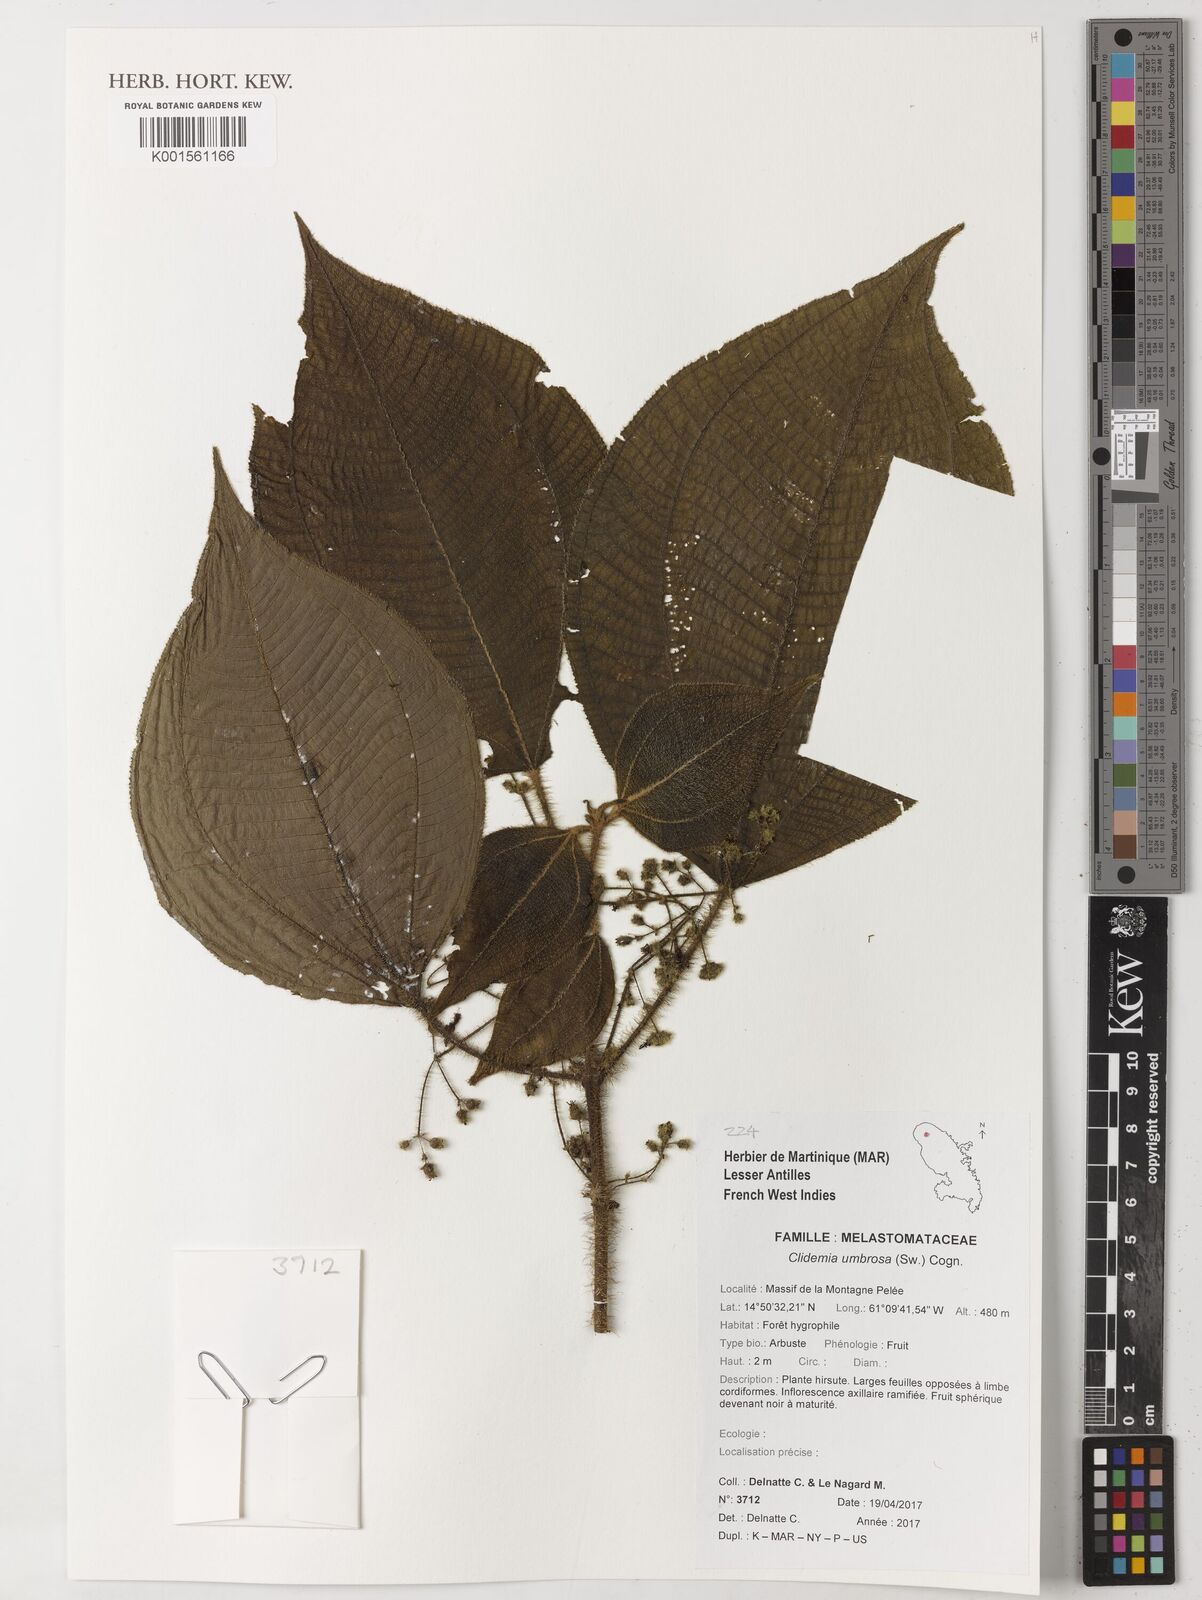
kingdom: Plantae
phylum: Tracheophyta
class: Magnoliopsida
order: Myrtales
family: Melastomataceae
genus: Miconia
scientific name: Miconia sciaphila
